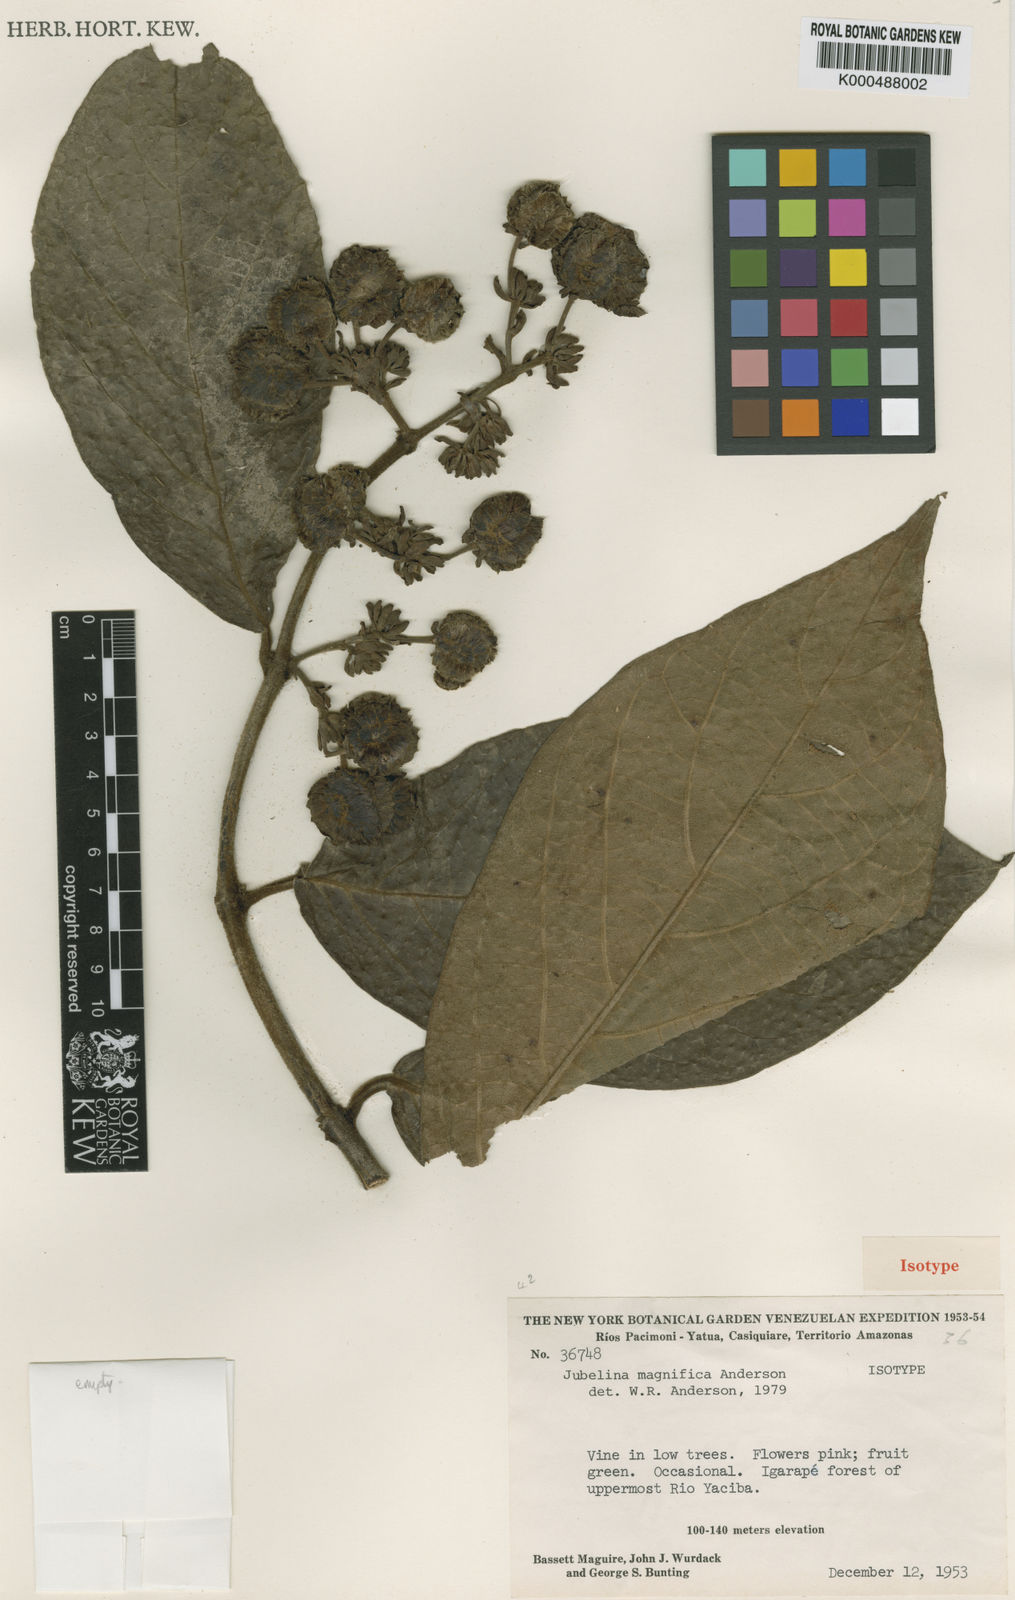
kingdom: Plantae
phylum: Tracheophyta
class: Magnoliopsida
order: Malpighiales
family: Malpighiaceae
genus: Jubelina
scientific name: Jubelina magnifica
